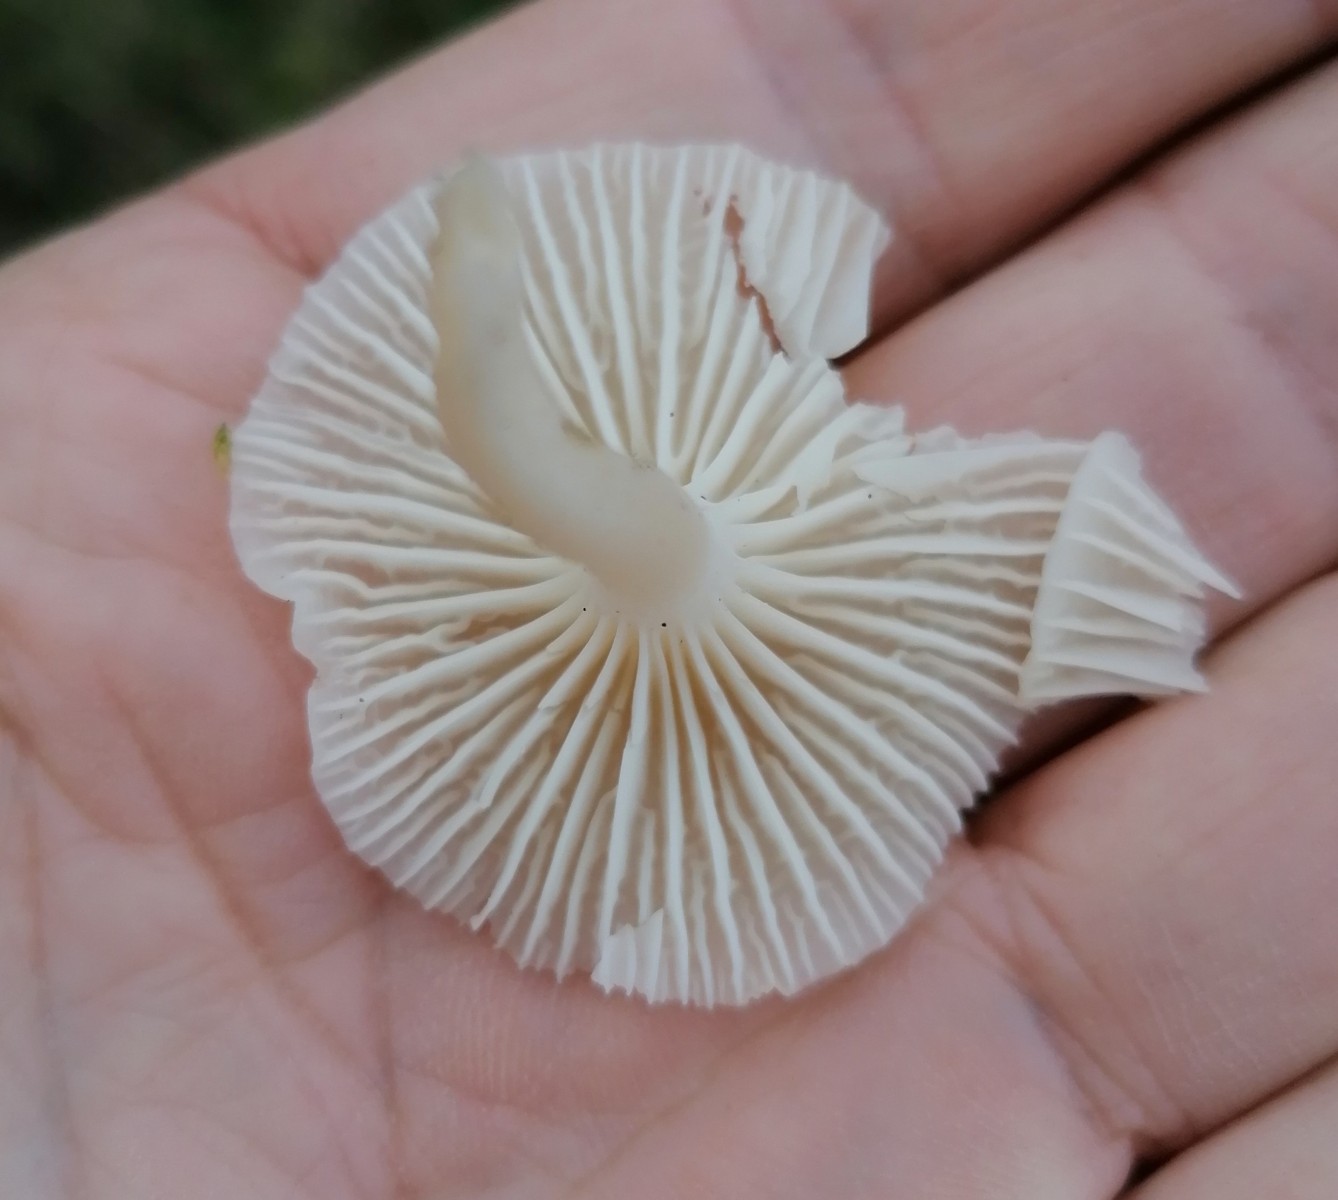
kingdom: Fungi
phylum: Basidiomycota
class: Agaricomycetes
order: Agaricales
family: Hygrophoraceae
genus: Cuphophyllus
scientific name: Cuphophyllus virgineus
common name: snehvid vokshat
